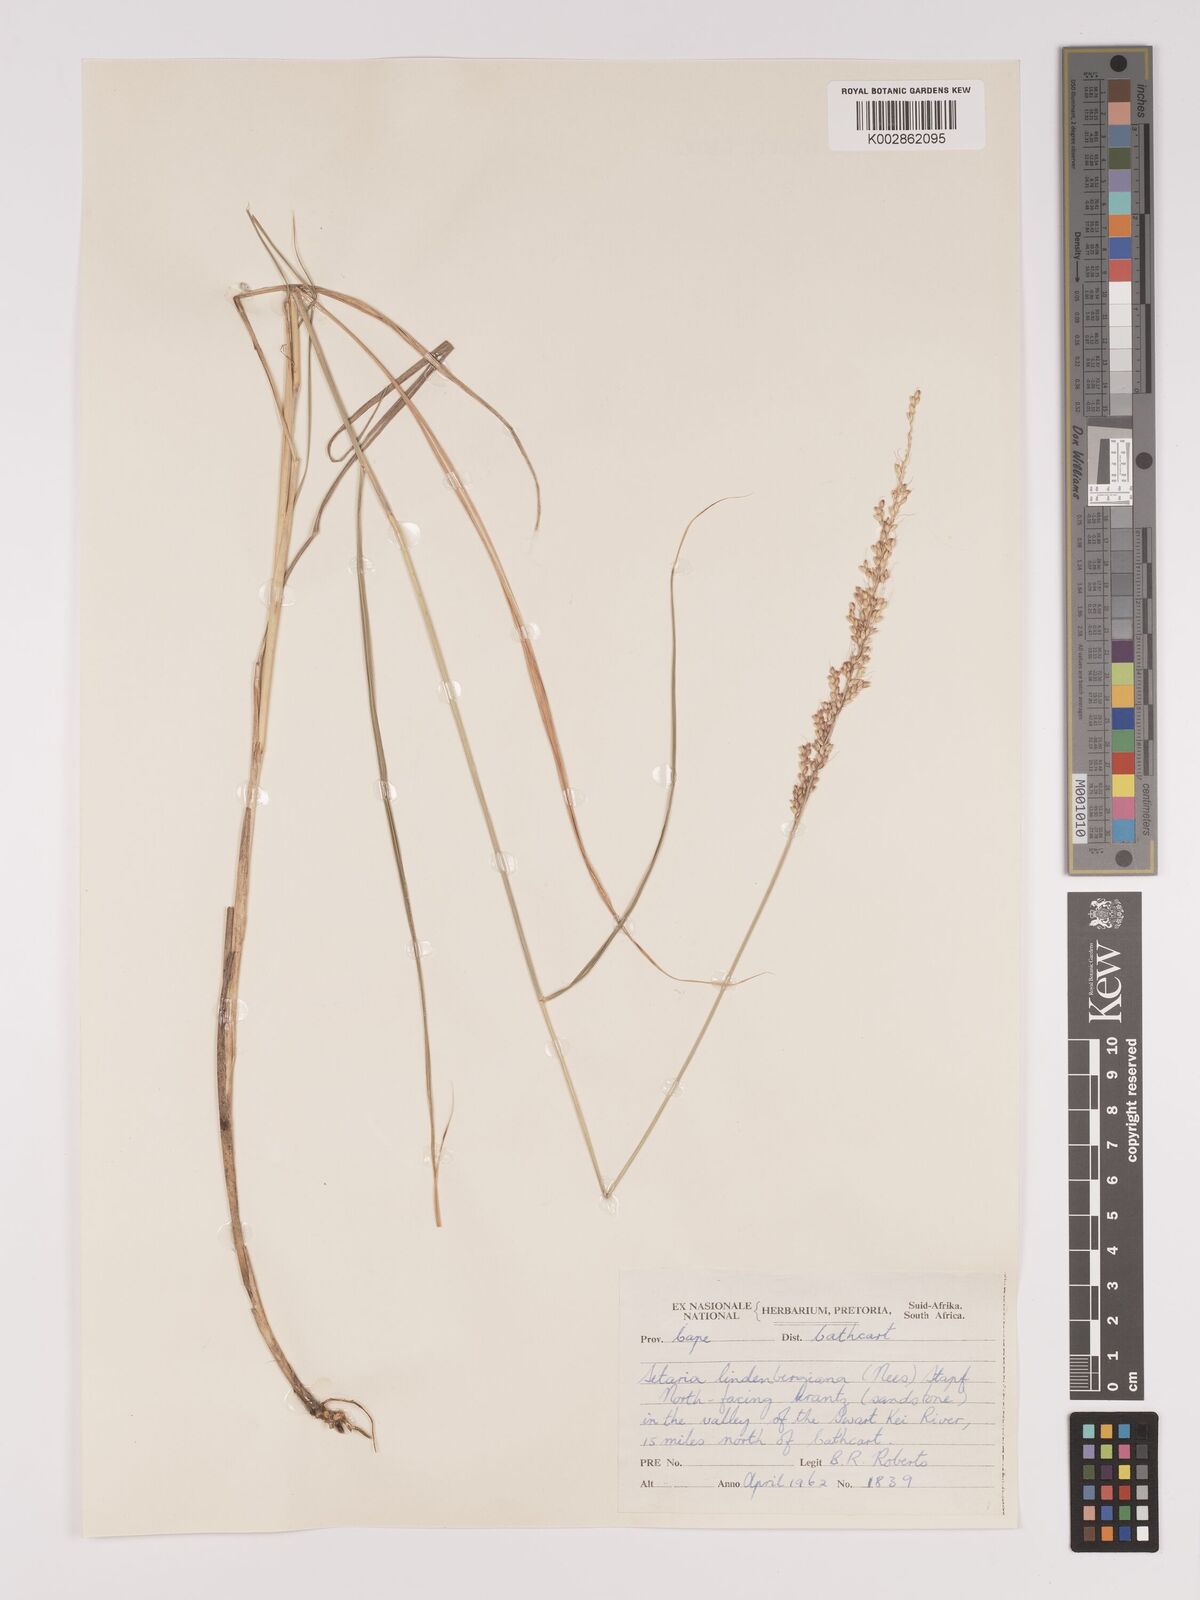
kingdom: Plantae
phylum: Tracheophyta
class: Liliopsida
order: Poales
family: Poaceae
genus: Setaria
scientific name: Setaria lindenbergiana
